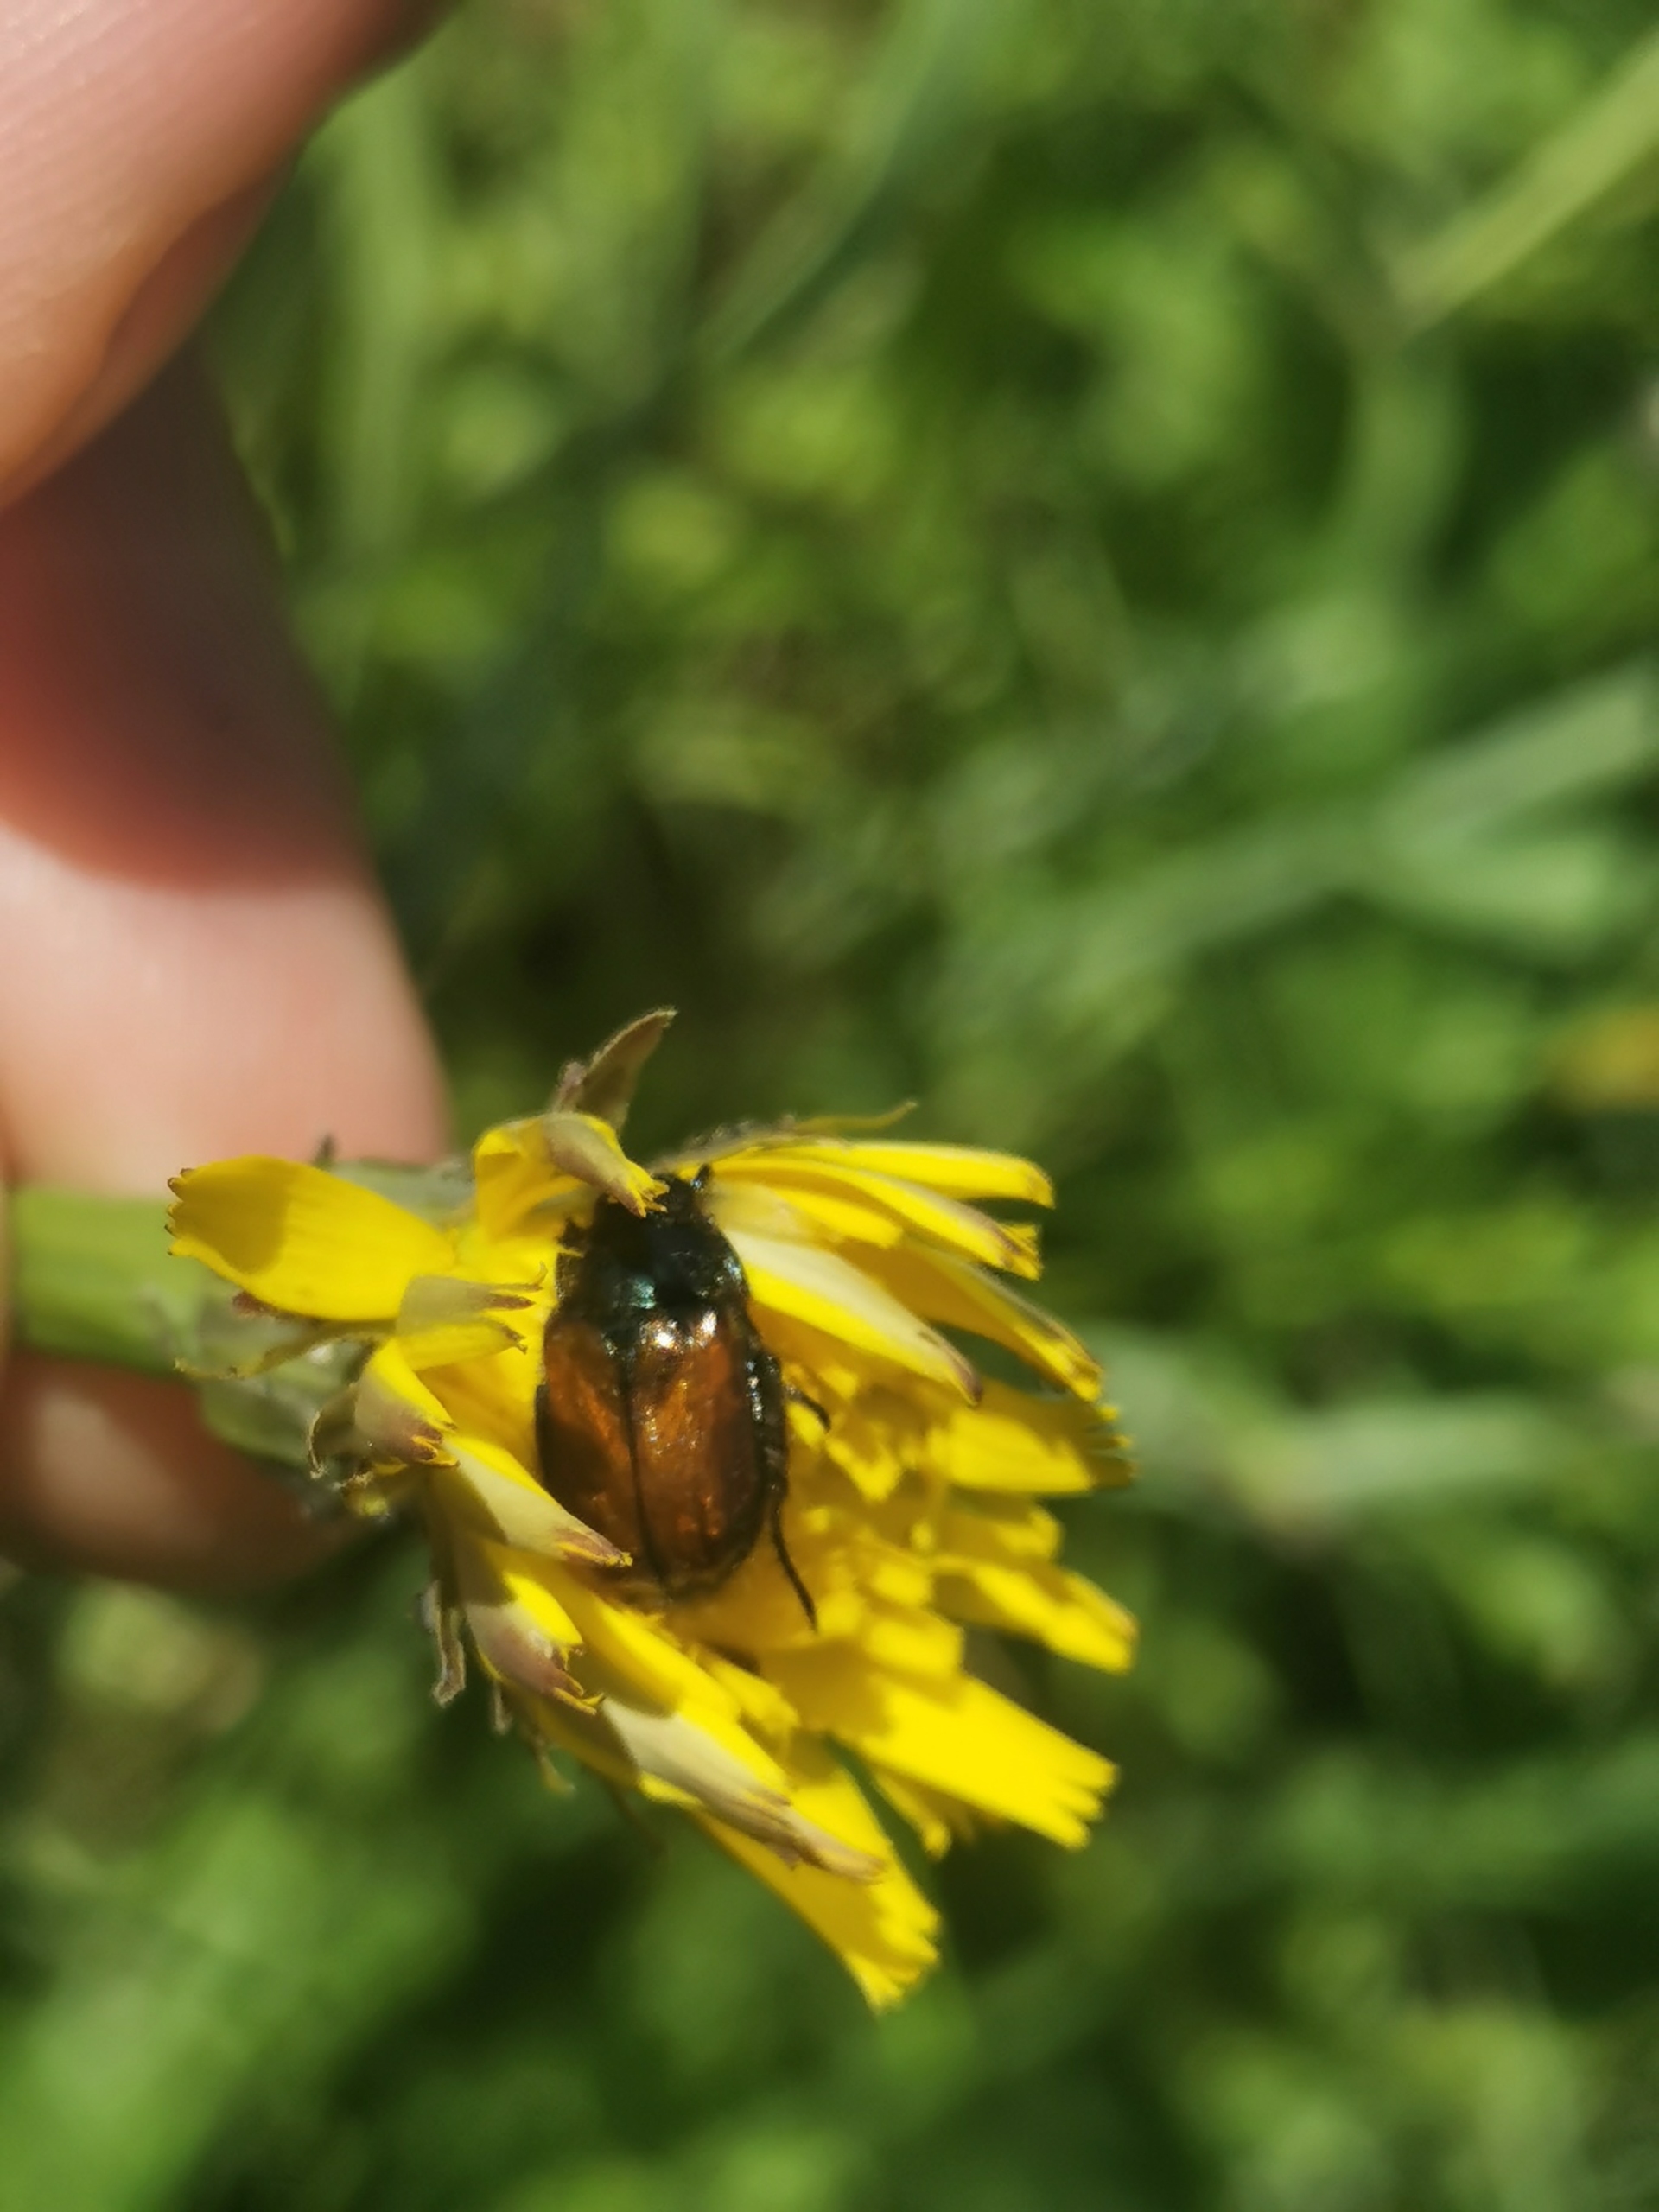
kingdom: Animalia
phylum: Arthropoda
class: Insecta
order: Coleoptera
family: Scarabaeidae
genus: Phyllopertha
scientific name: Phyllopertha horticola
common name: Gåsebille
